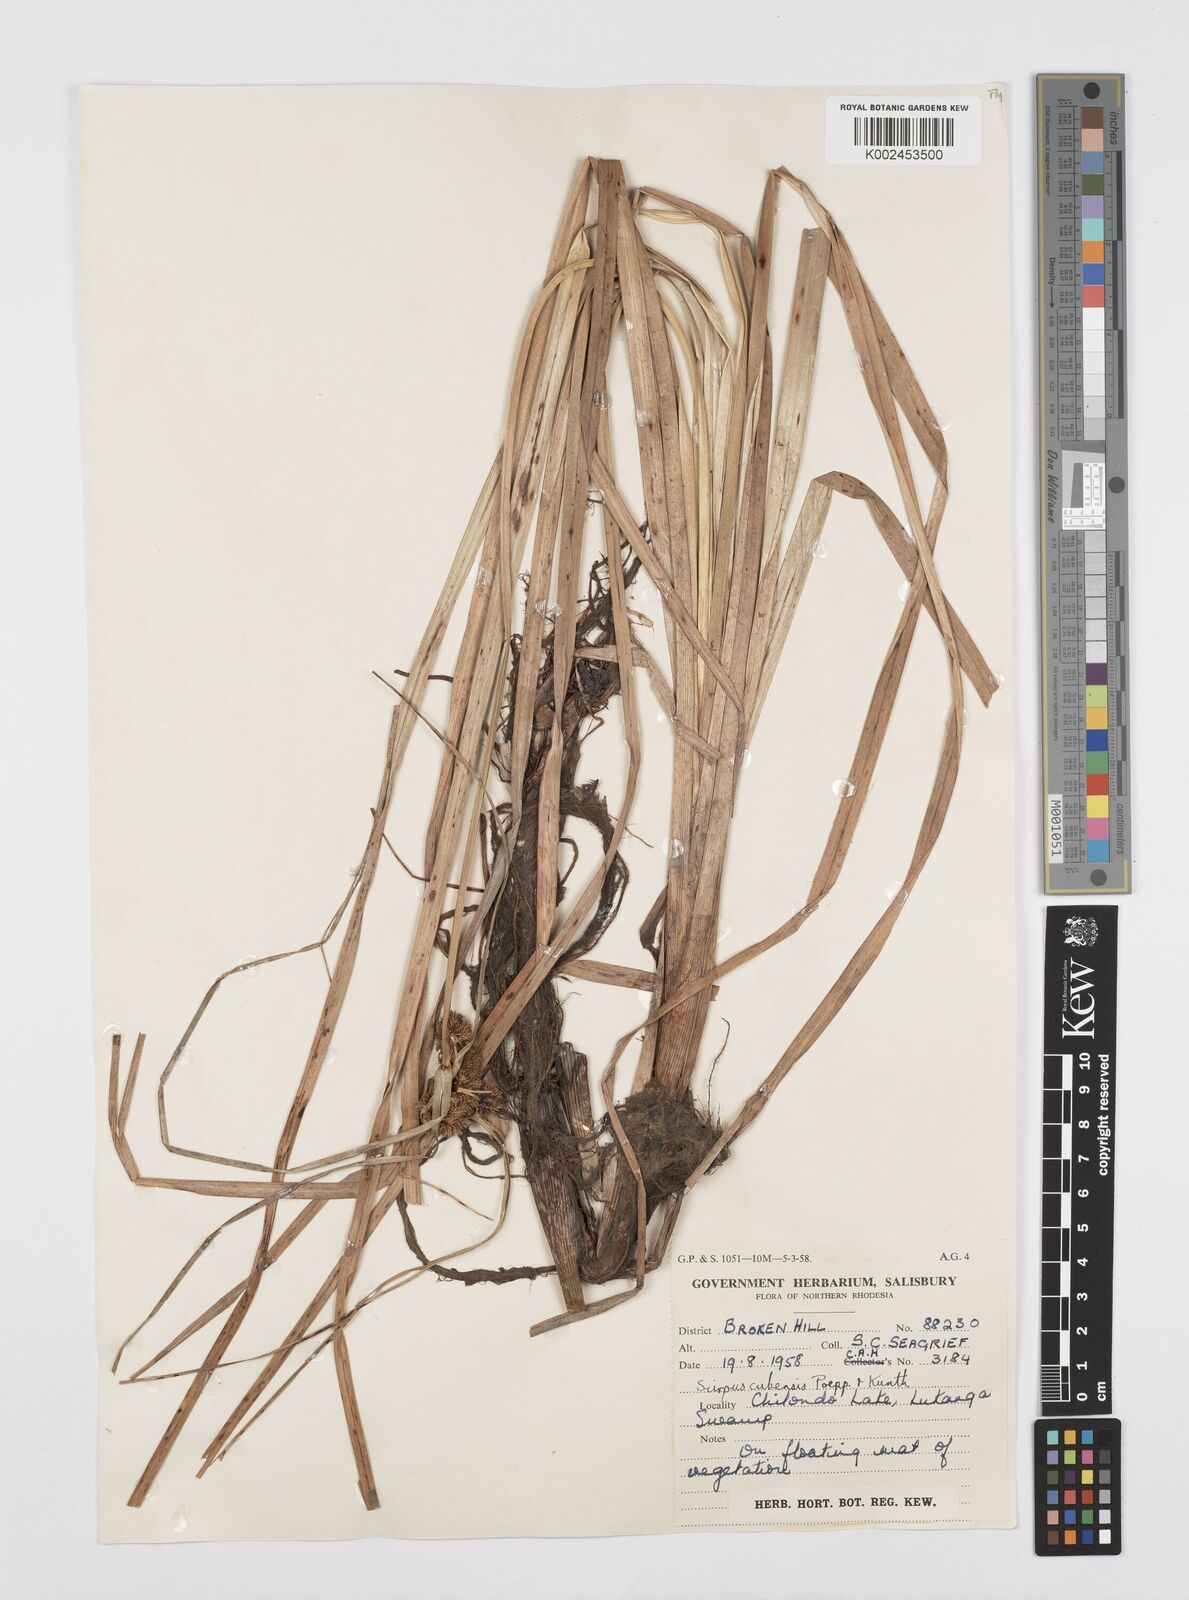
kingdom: Plantae
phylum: Tracheophyta
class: Liliopsida
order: Poales
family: Cyperaceae
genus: Cyperus
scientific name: Cyperus elegans
